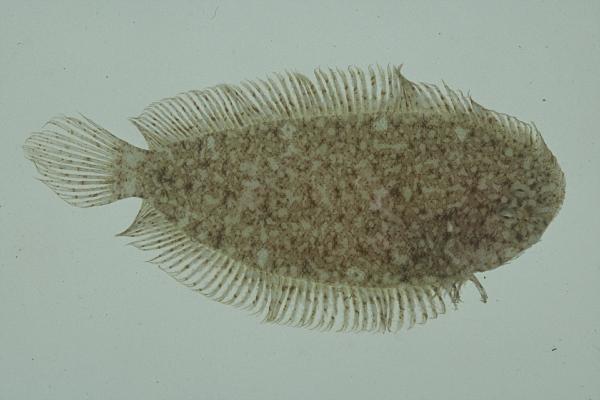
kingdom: Animalia
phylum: Chordata
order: Pleuronectiformes
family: Soleidae
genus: Aseraggodes
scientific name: Aseraggodes xenicus
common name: Dwarf sole
